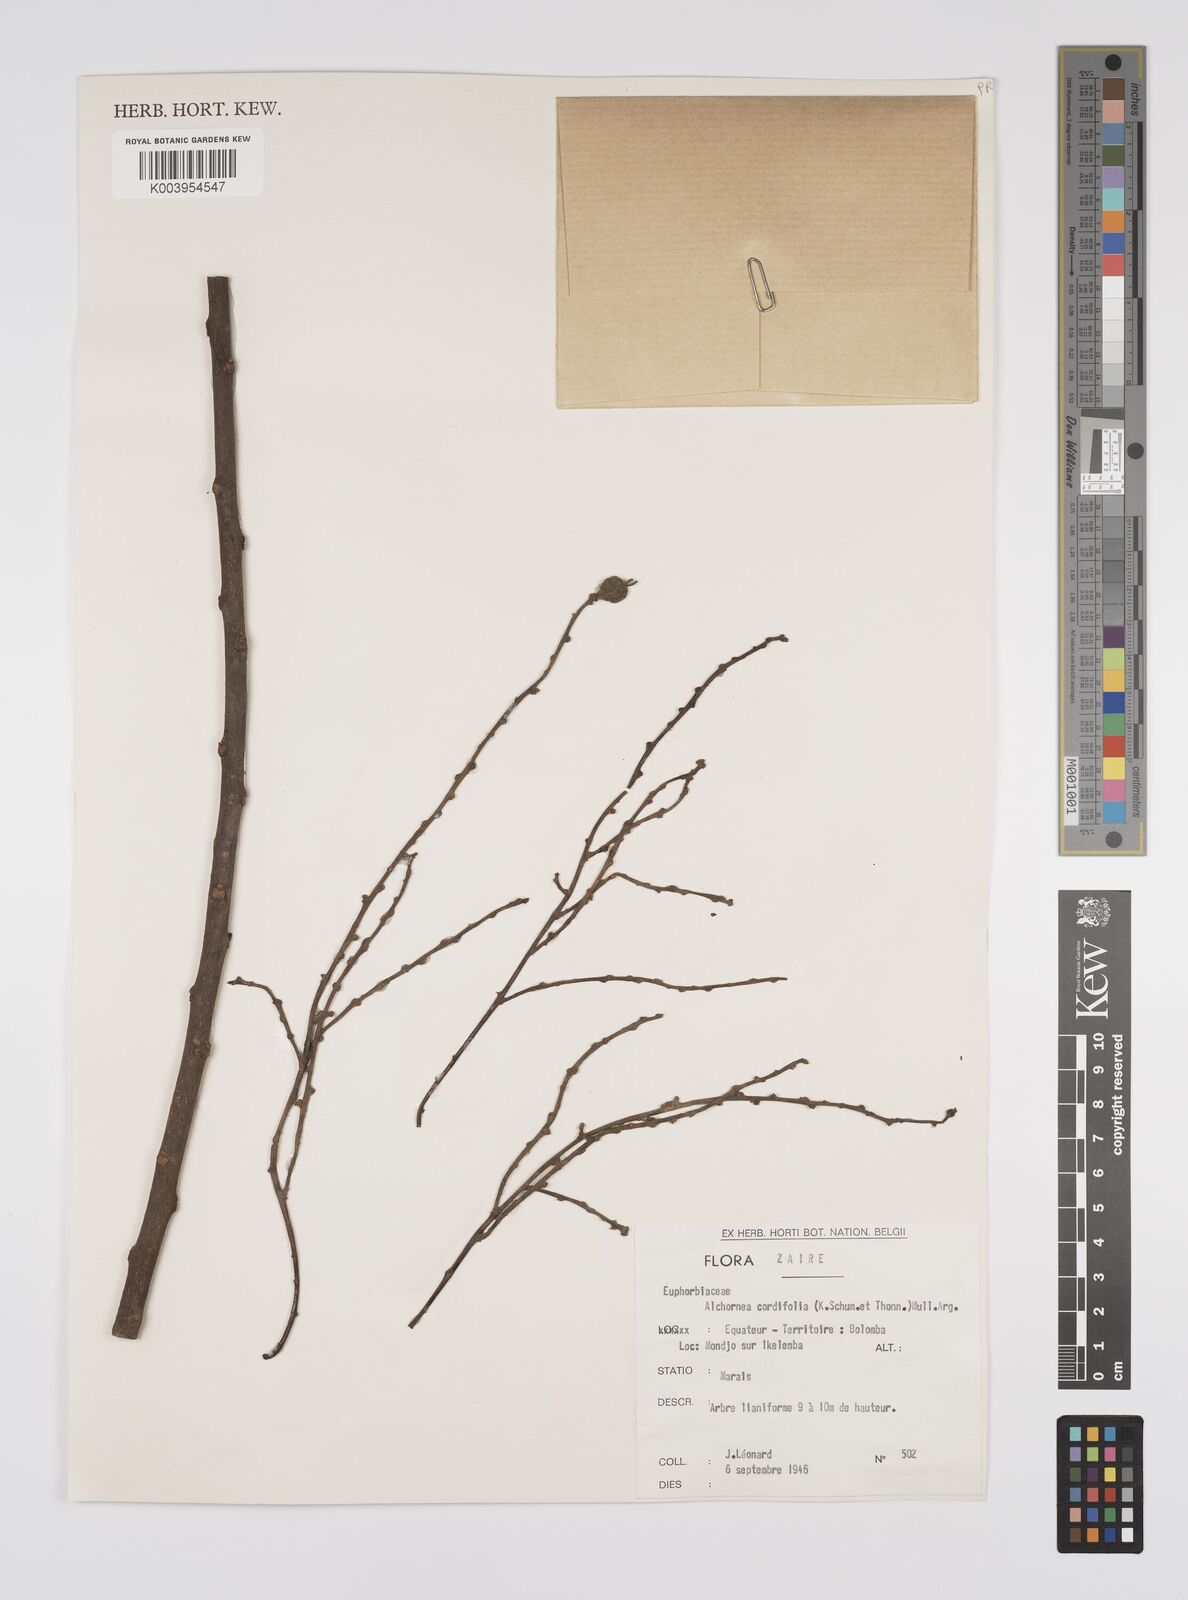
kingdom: Plantae
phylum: Tracheophyta
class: Magnoliopsida
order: Malpighiales
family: Euphorbiaceae
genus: Alchornea
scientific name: Alchornea cordifolia
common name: Christmasbush
